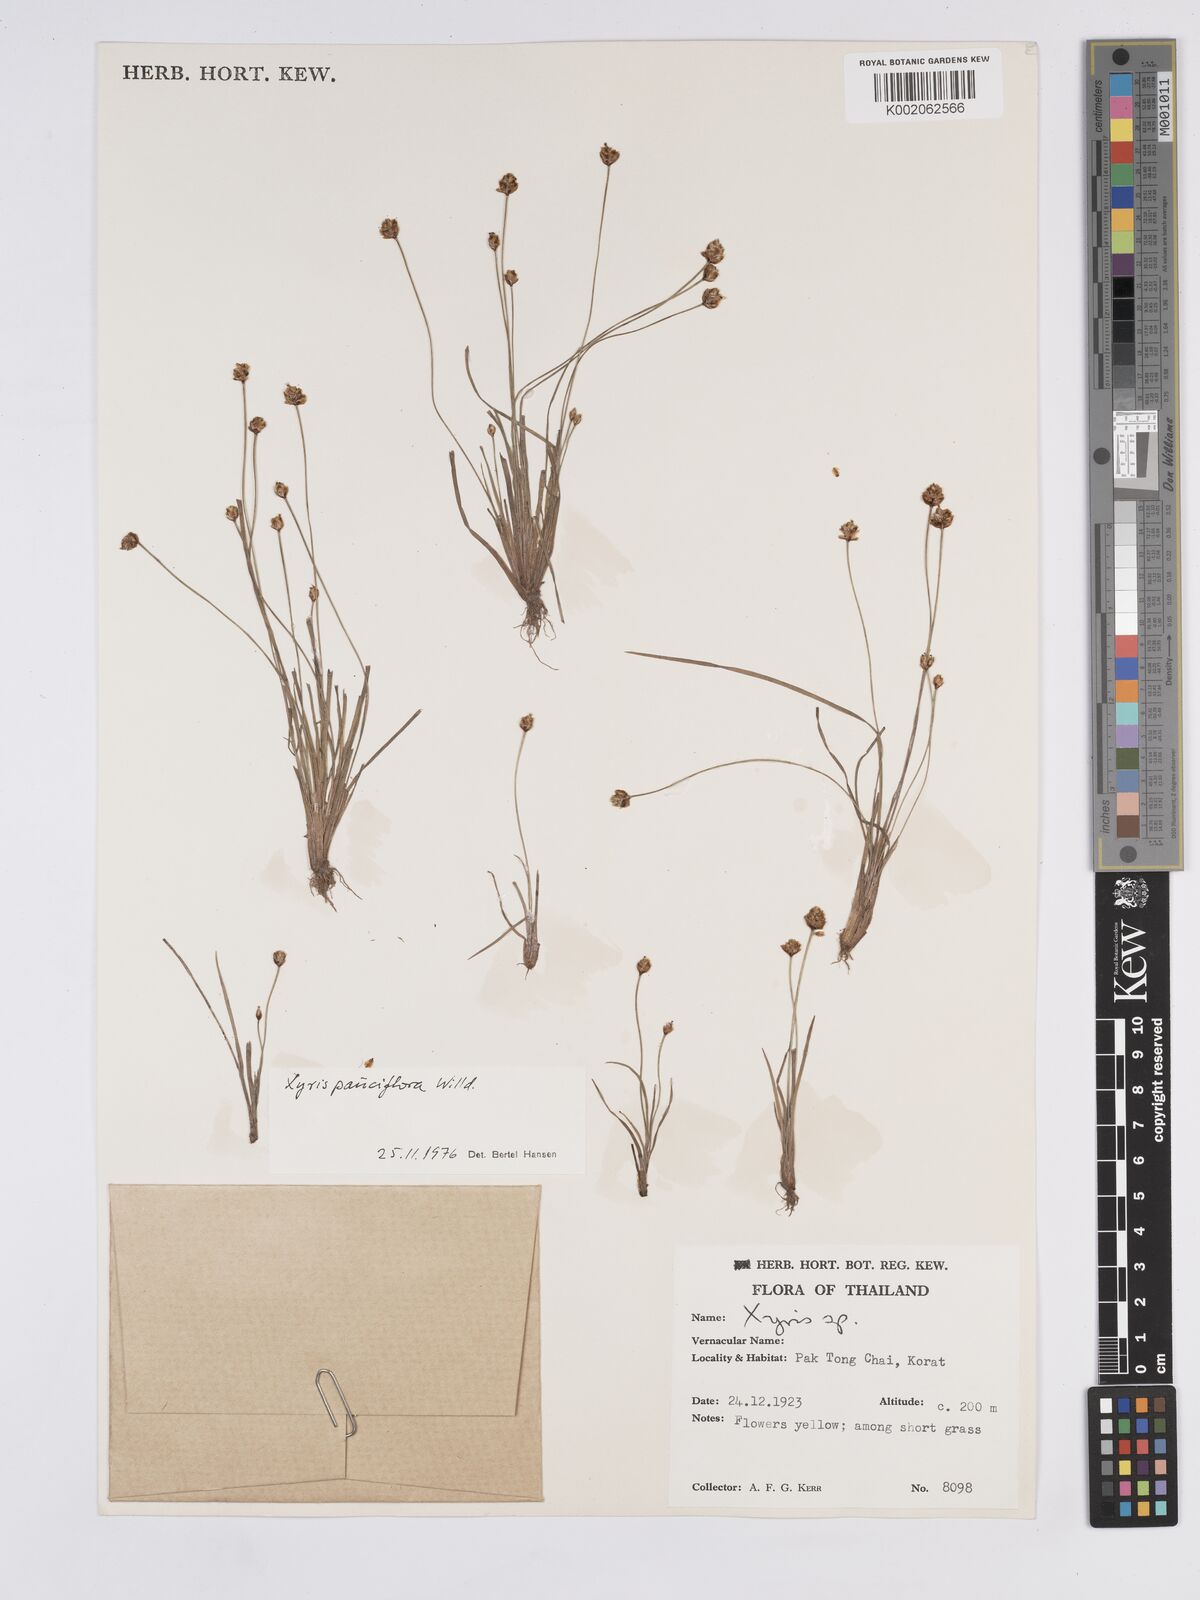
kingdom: Plantae
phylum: Tracheophyta
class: Liliopsida
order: Poales
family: Xyridaceae
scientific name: Xyridaceae
